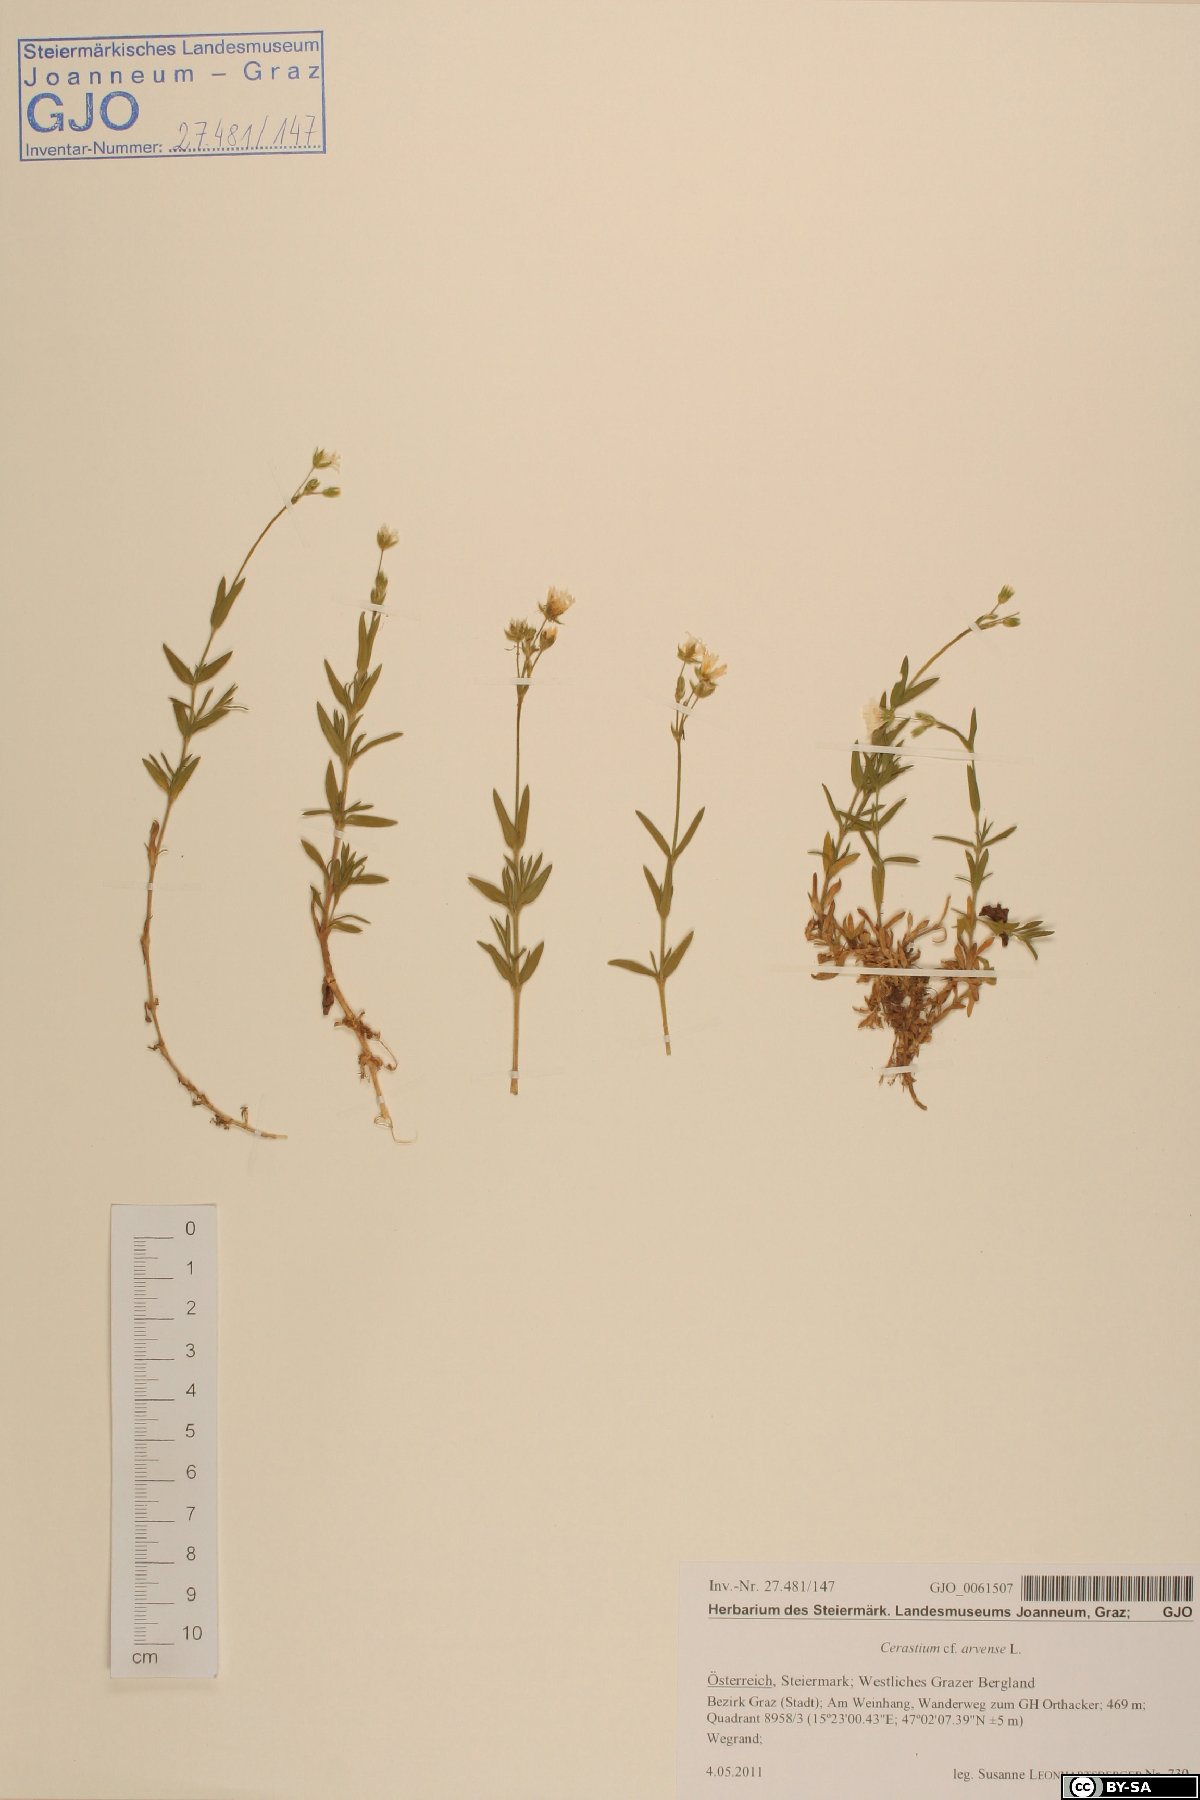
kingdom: Plantae
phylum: Tracheophyta
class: Magnoliopsida
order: Caryophyllales
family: Caryophyllaceae
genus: Cerastium
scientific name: Cerastium arvense
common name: Field mouse-ear
